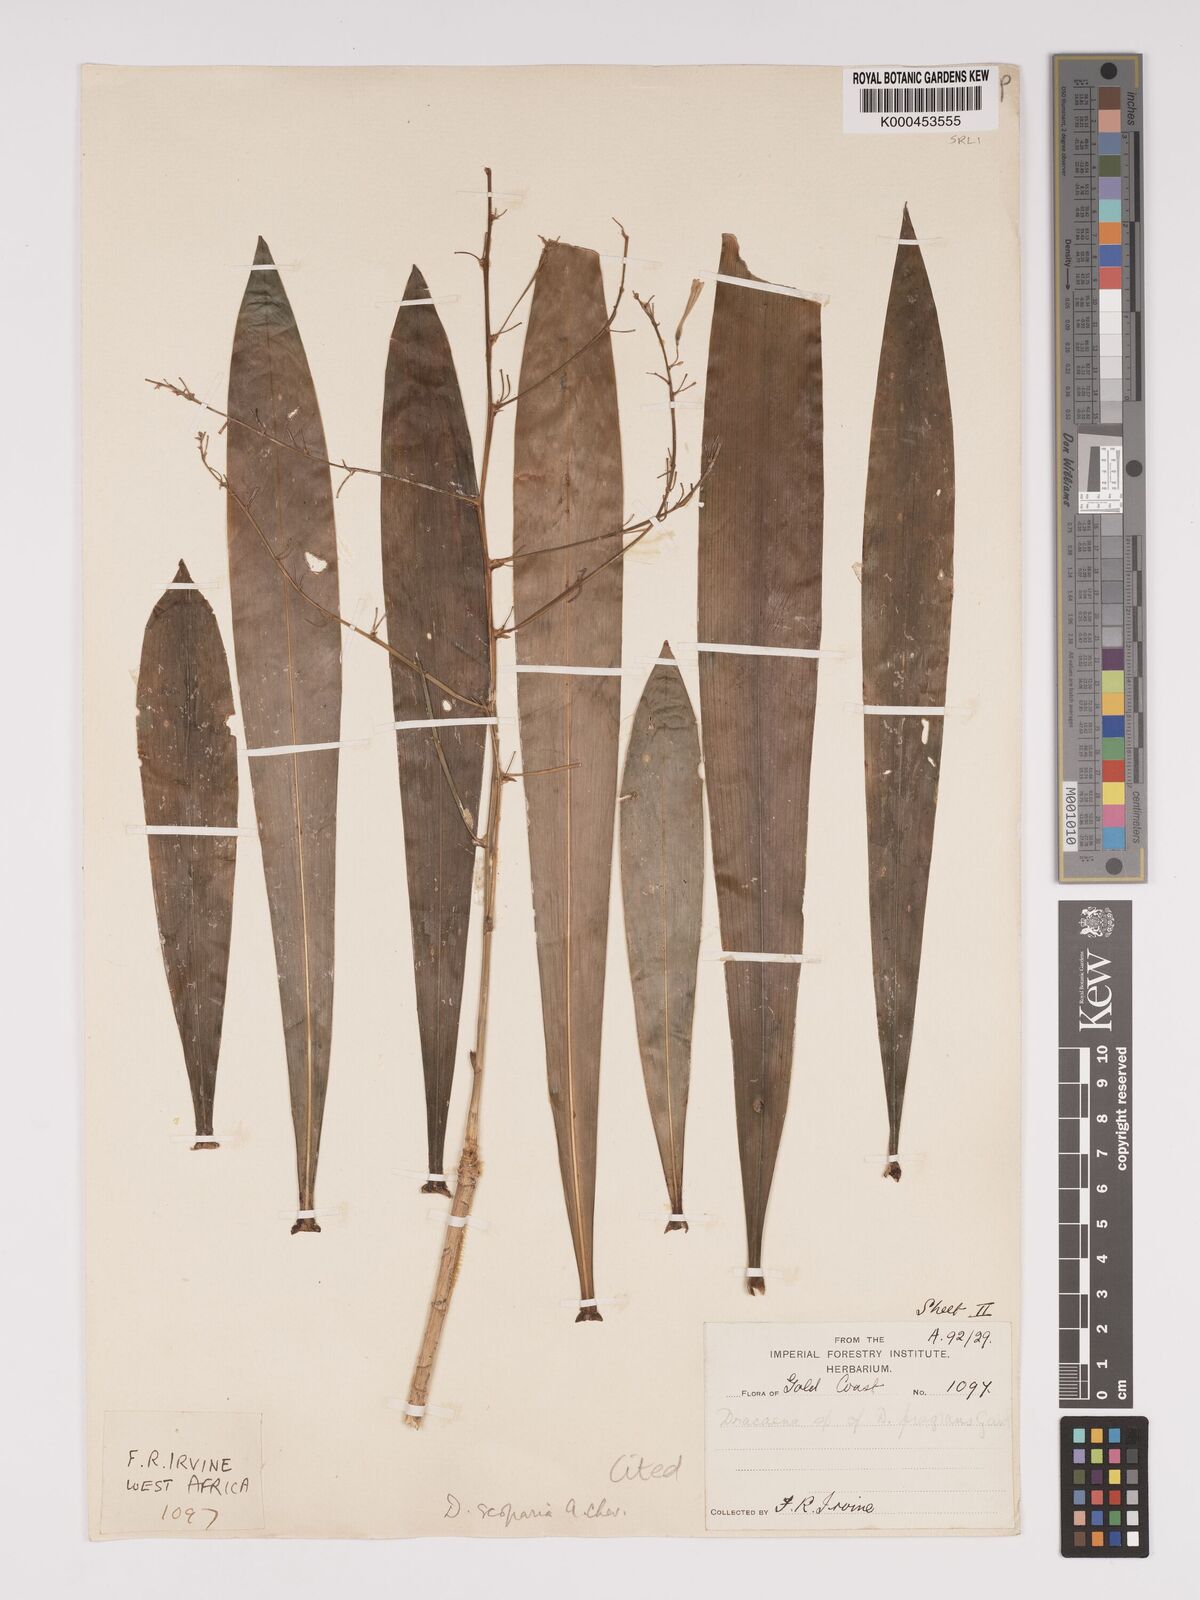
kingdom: Plantae
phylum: Tracheophyta
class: Liliopsida
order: Asparagales
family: Asparagaceae
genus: Dracaena
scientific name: Dracaena cerasifera
